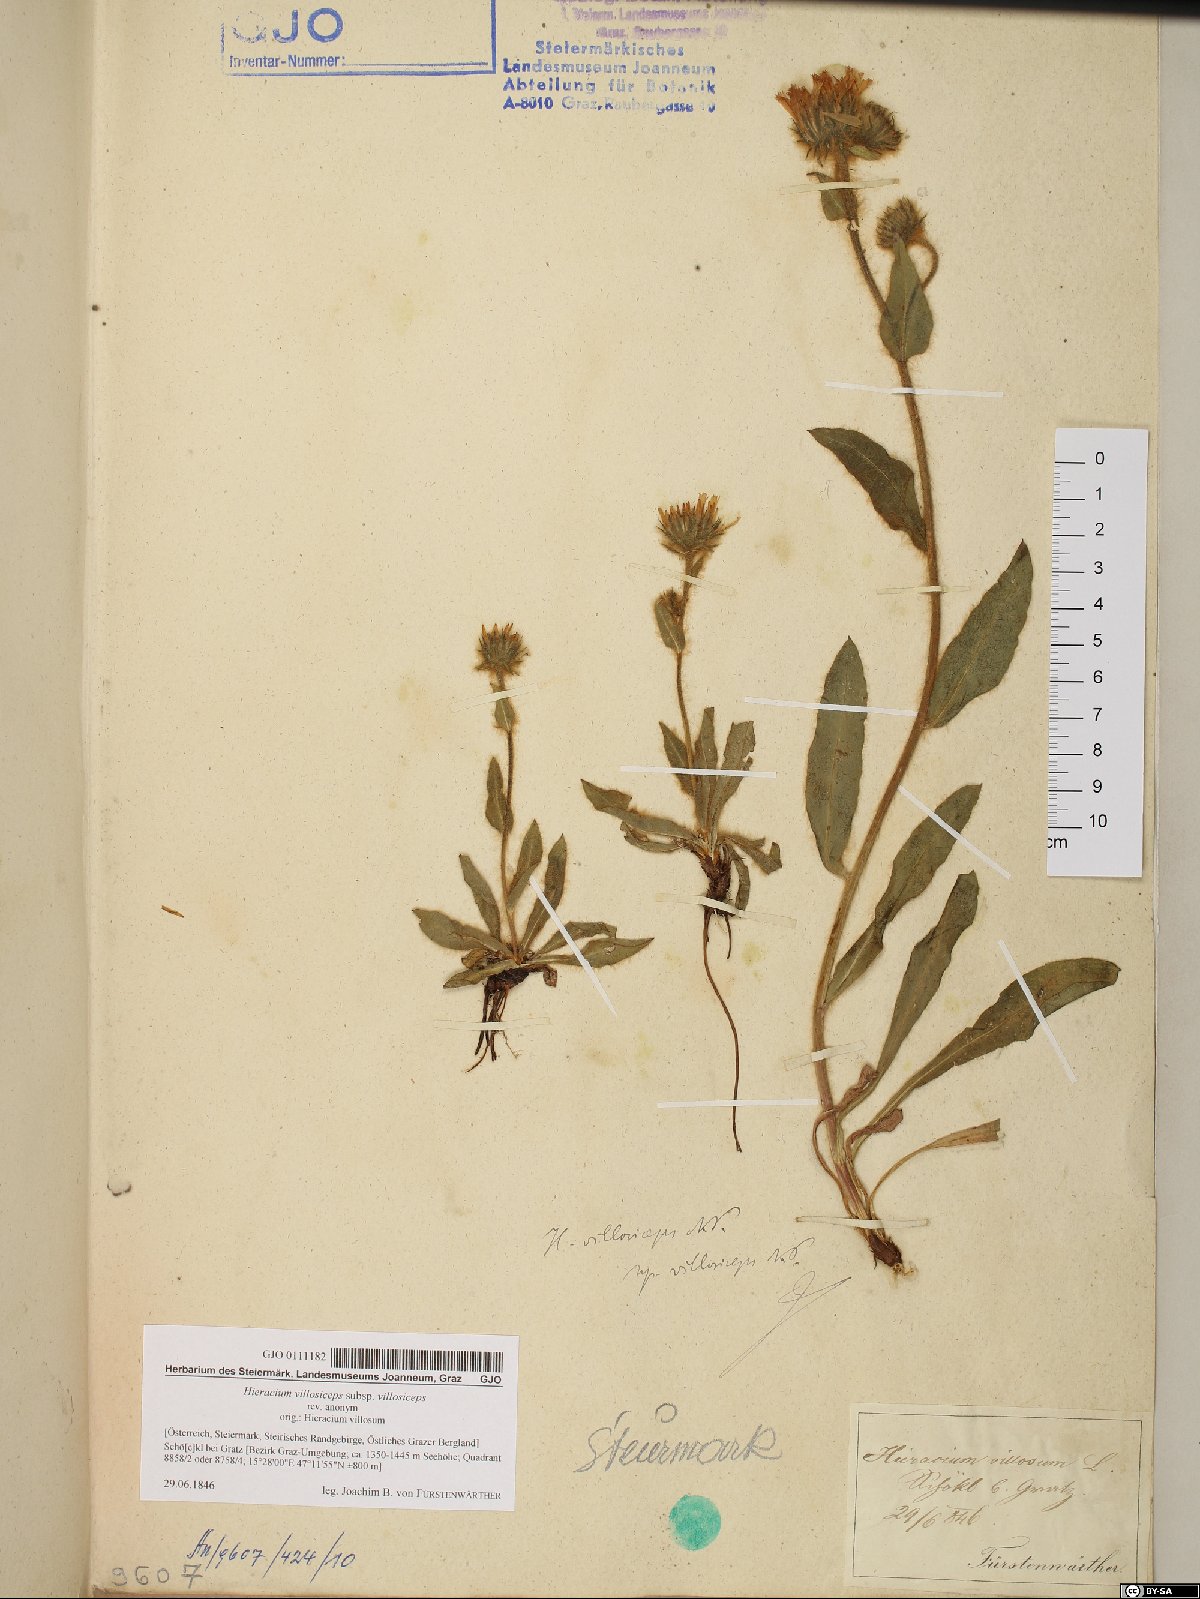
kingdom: Plantae
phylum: Tracheophyta
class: Magnoliopsida
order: Asterales
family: Asteraceae
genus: Hieracium
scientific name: Hieracium pilosum
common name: Fimbriate-pitted hawkweed
